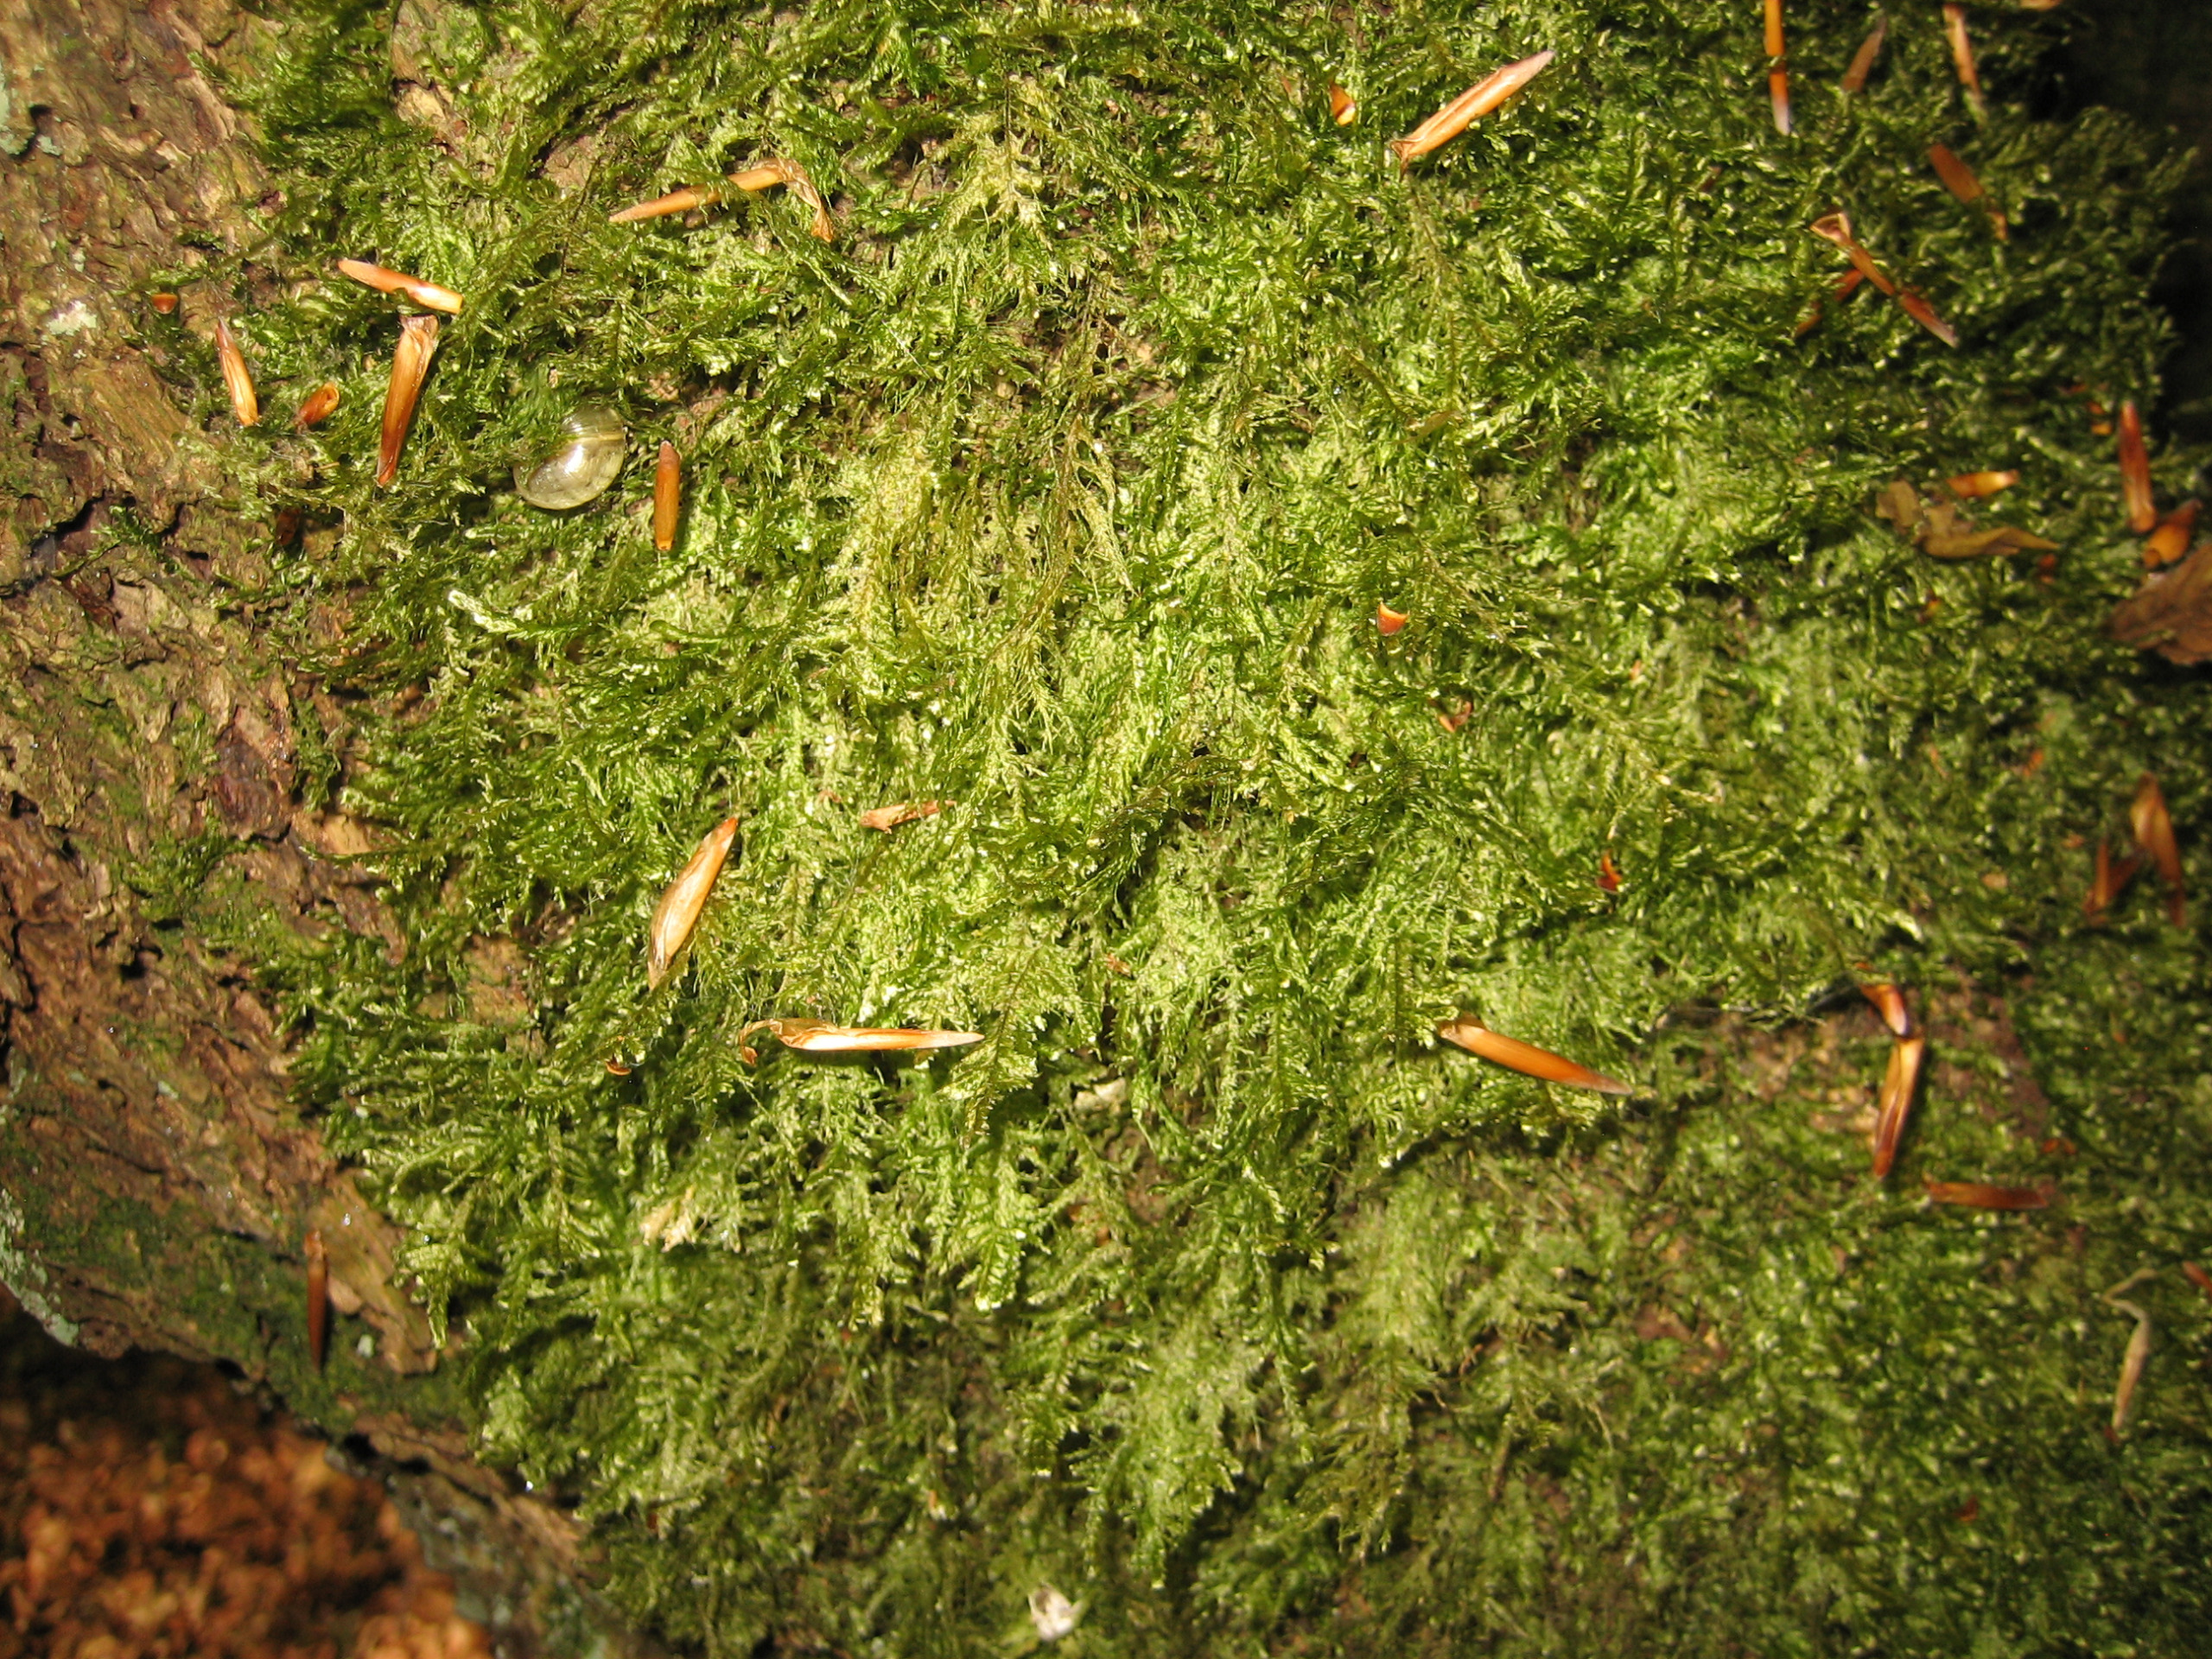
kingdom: Plantae
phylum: Bryophyta
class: Bryopsida
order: Hypnales
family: Neckeraceae
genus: Alleniella
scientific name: Alleniella complanata
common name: Almindelig fladmos
